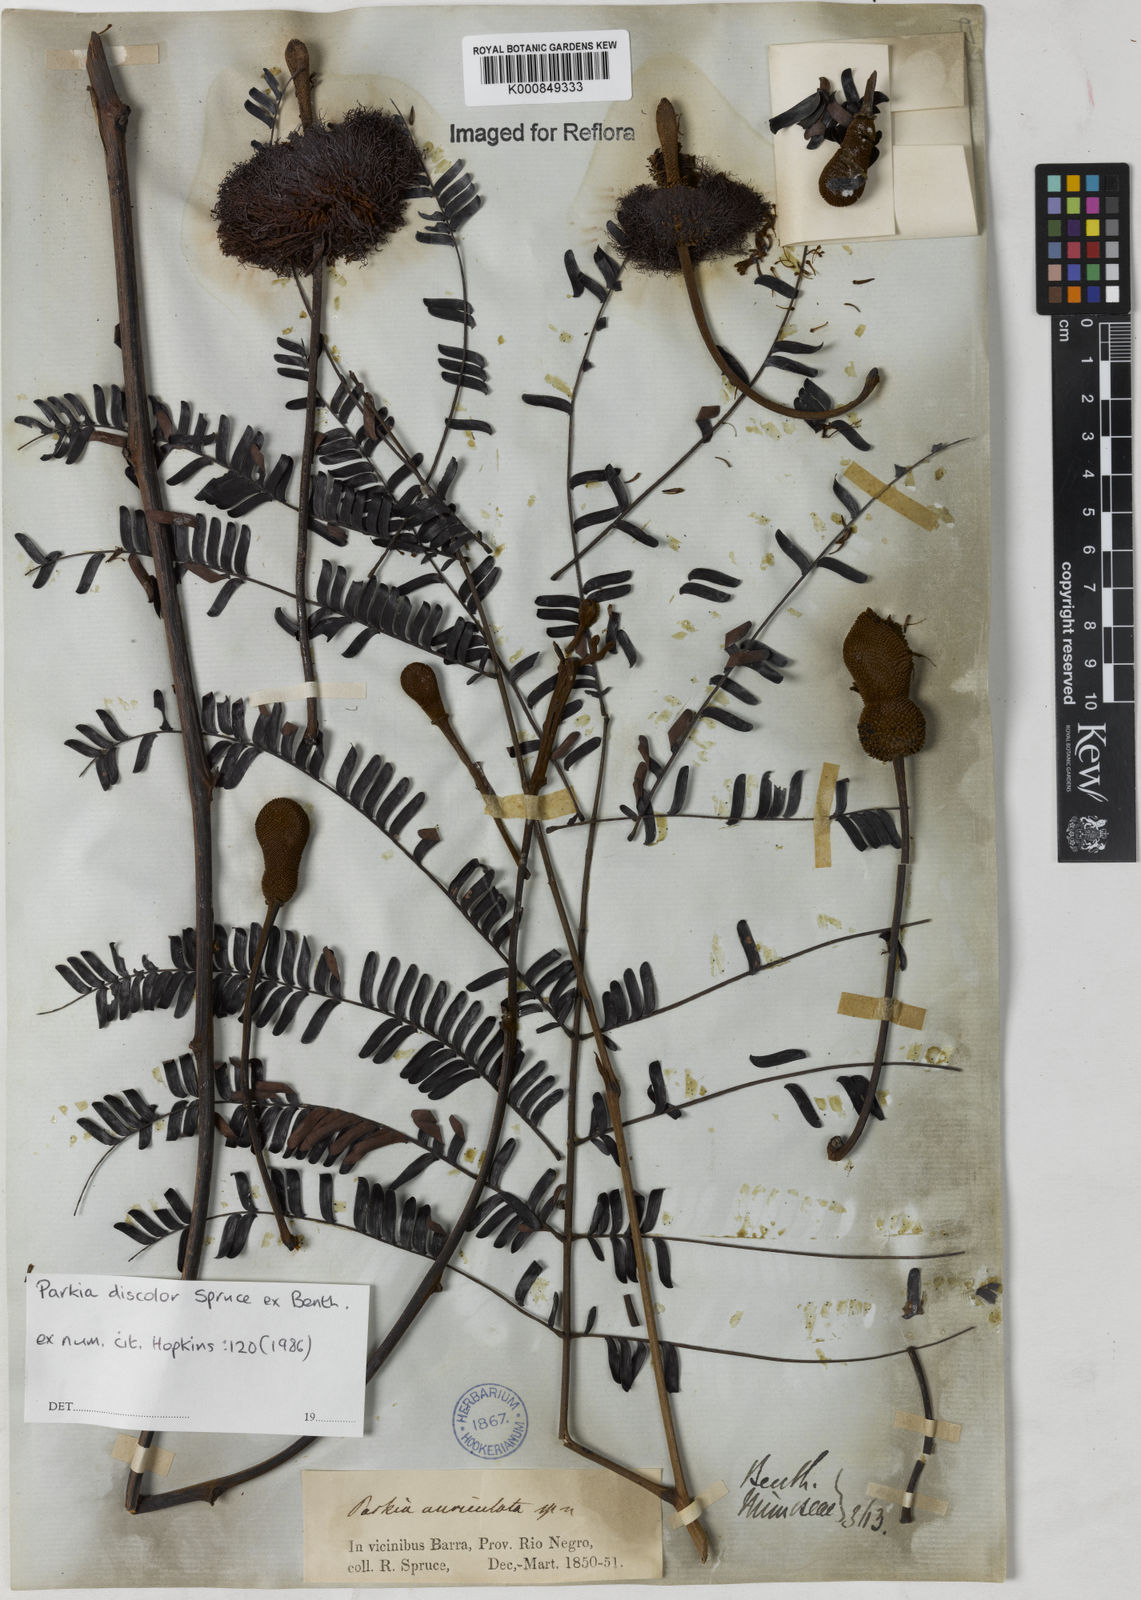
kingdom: Plantae
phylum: Tracheophyta
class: Magnoliopsida
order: Fabales
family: Fabaceae
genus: Parkia
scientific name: Parkia discolor
